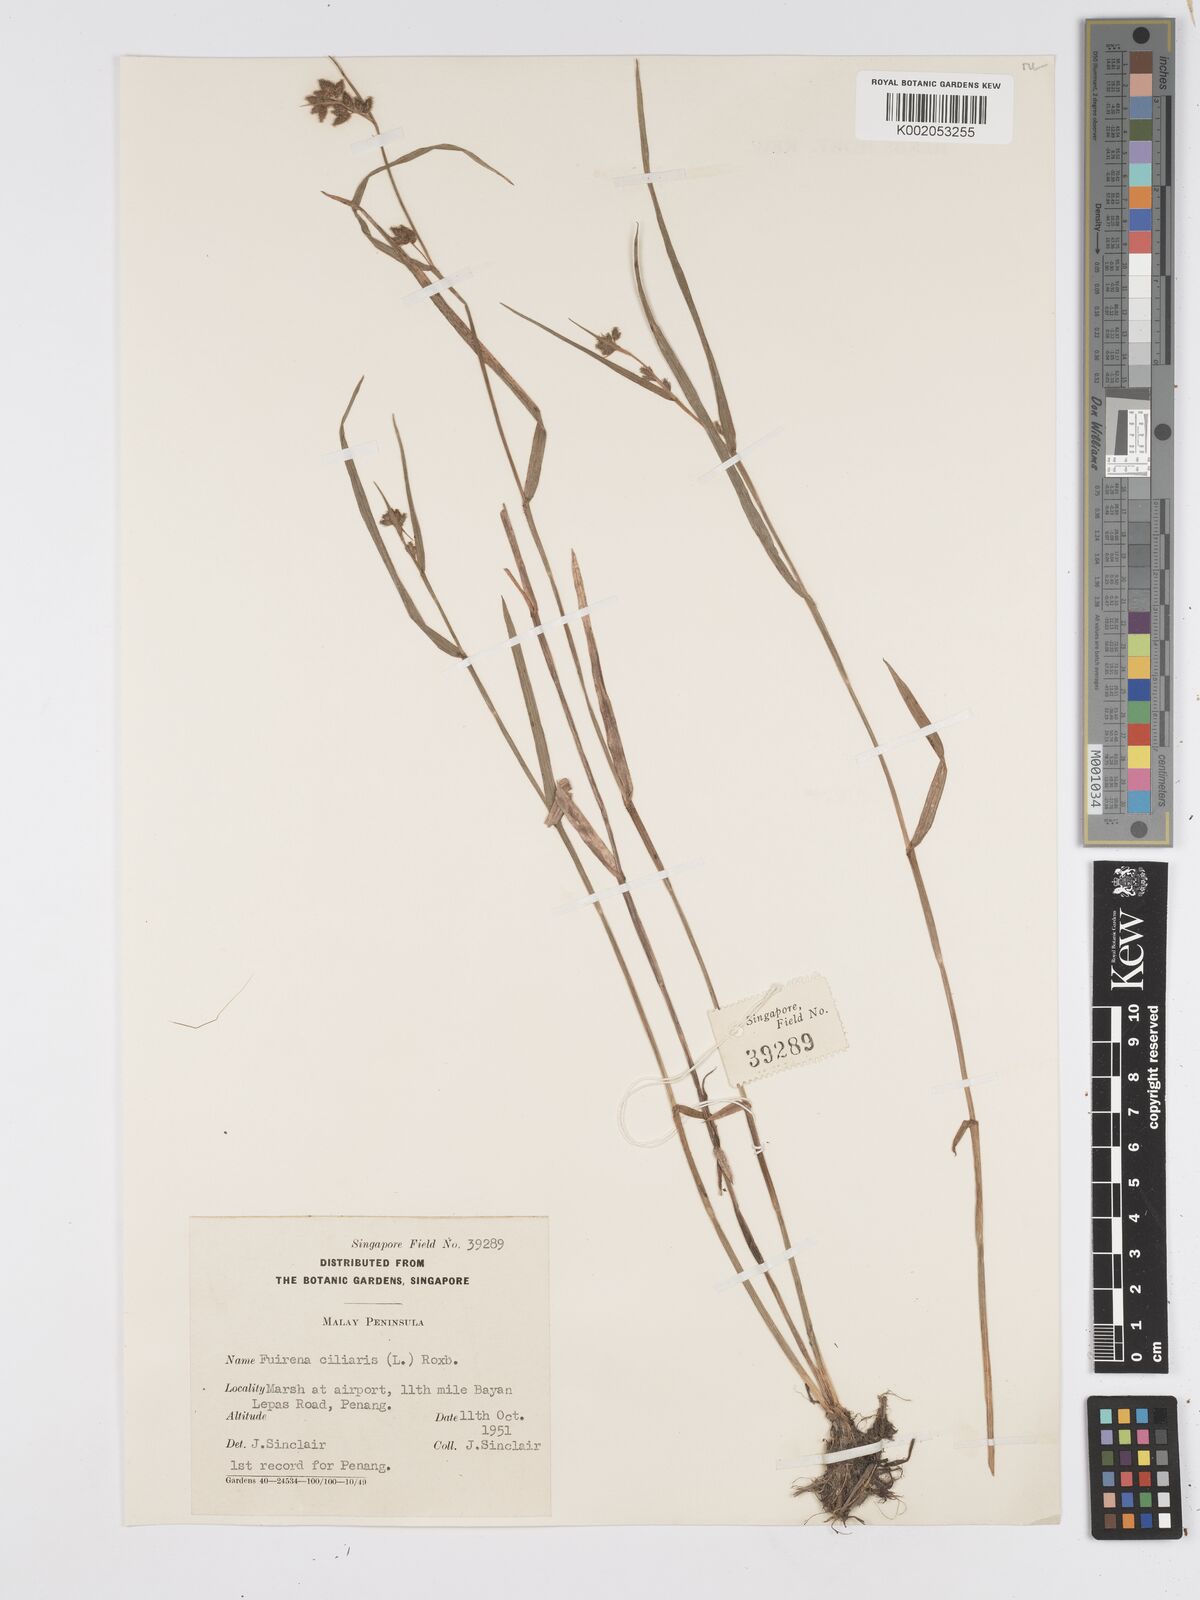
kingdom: Plantae
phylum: Tracheophyta
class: Liliopsida
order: Poales
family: Cyperaceae
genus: Fuirena
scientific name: Fuirena ciliaris
